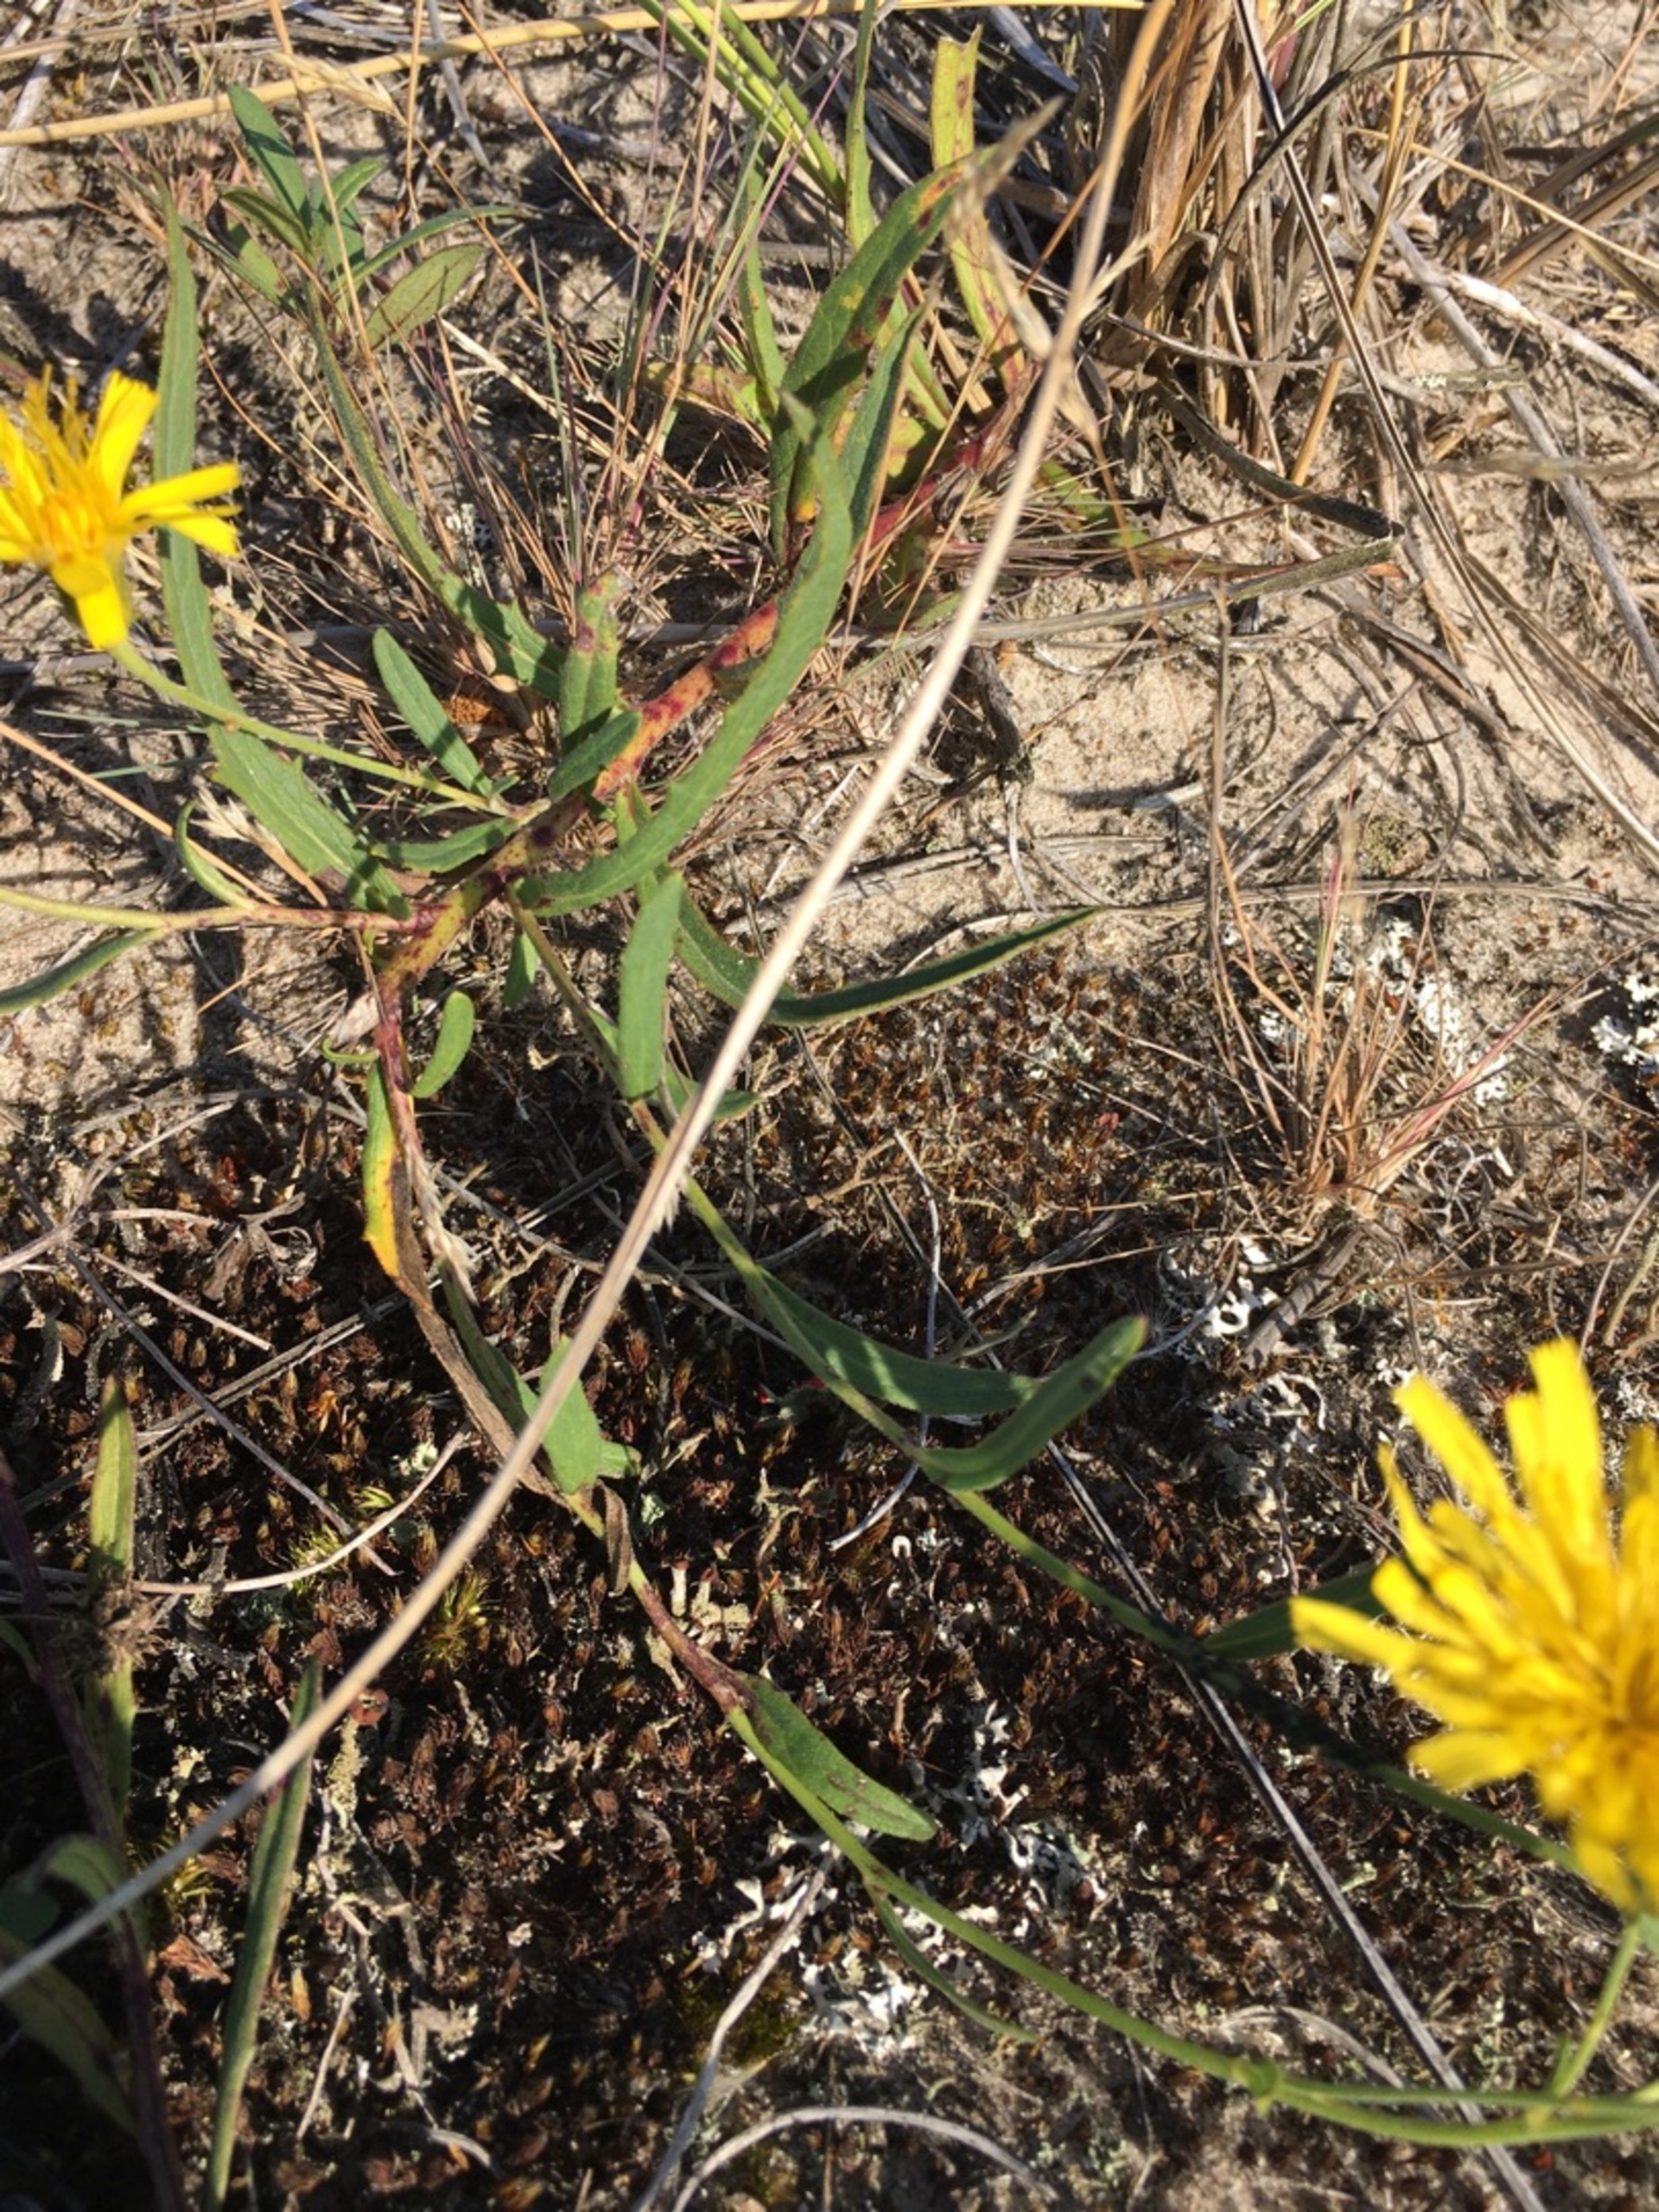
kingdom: Plantae
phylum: Tracheophyta
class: Magnoliopsida
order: Asterales
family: Asteraceae
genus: Hieracium
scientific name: Hieracium umbellatum
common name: Smalbladet høgeurt
